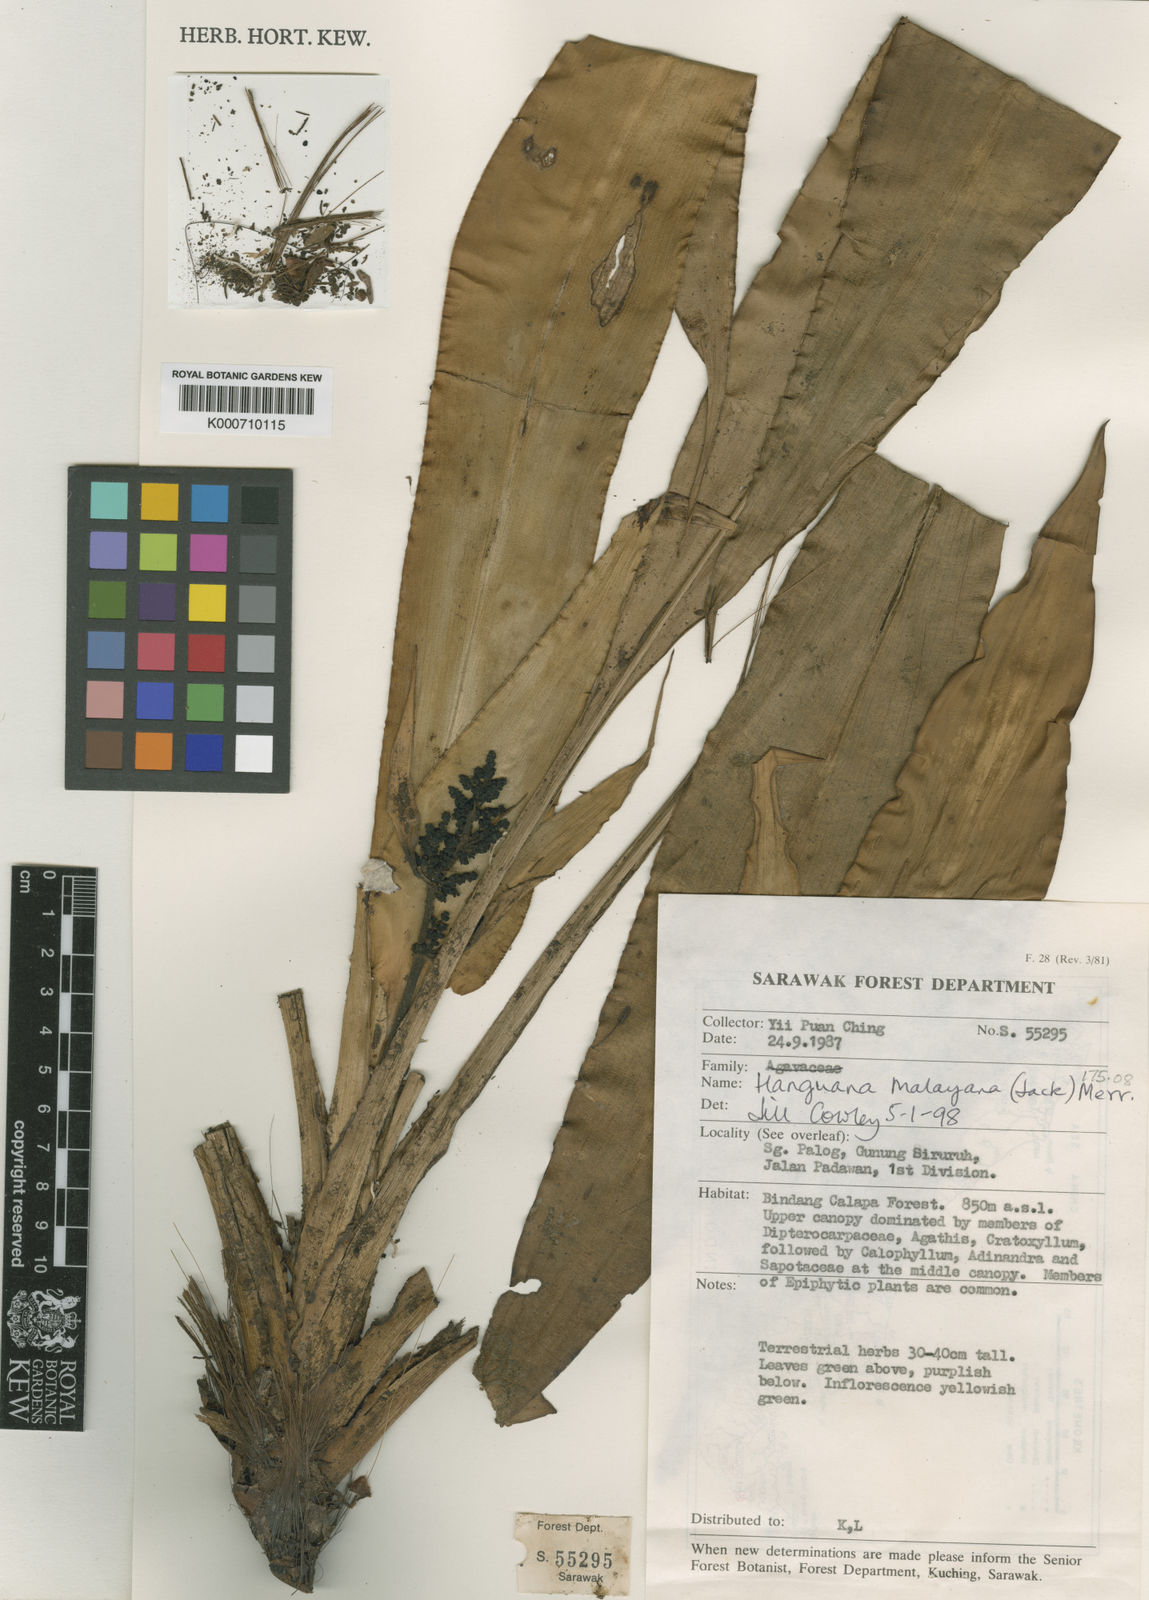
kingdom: Plantae
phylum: Tracheophyta
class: Liliopsida
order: Commelinales
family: Hanguanaceae
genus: Hanguana
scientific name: Hanguana malayana
